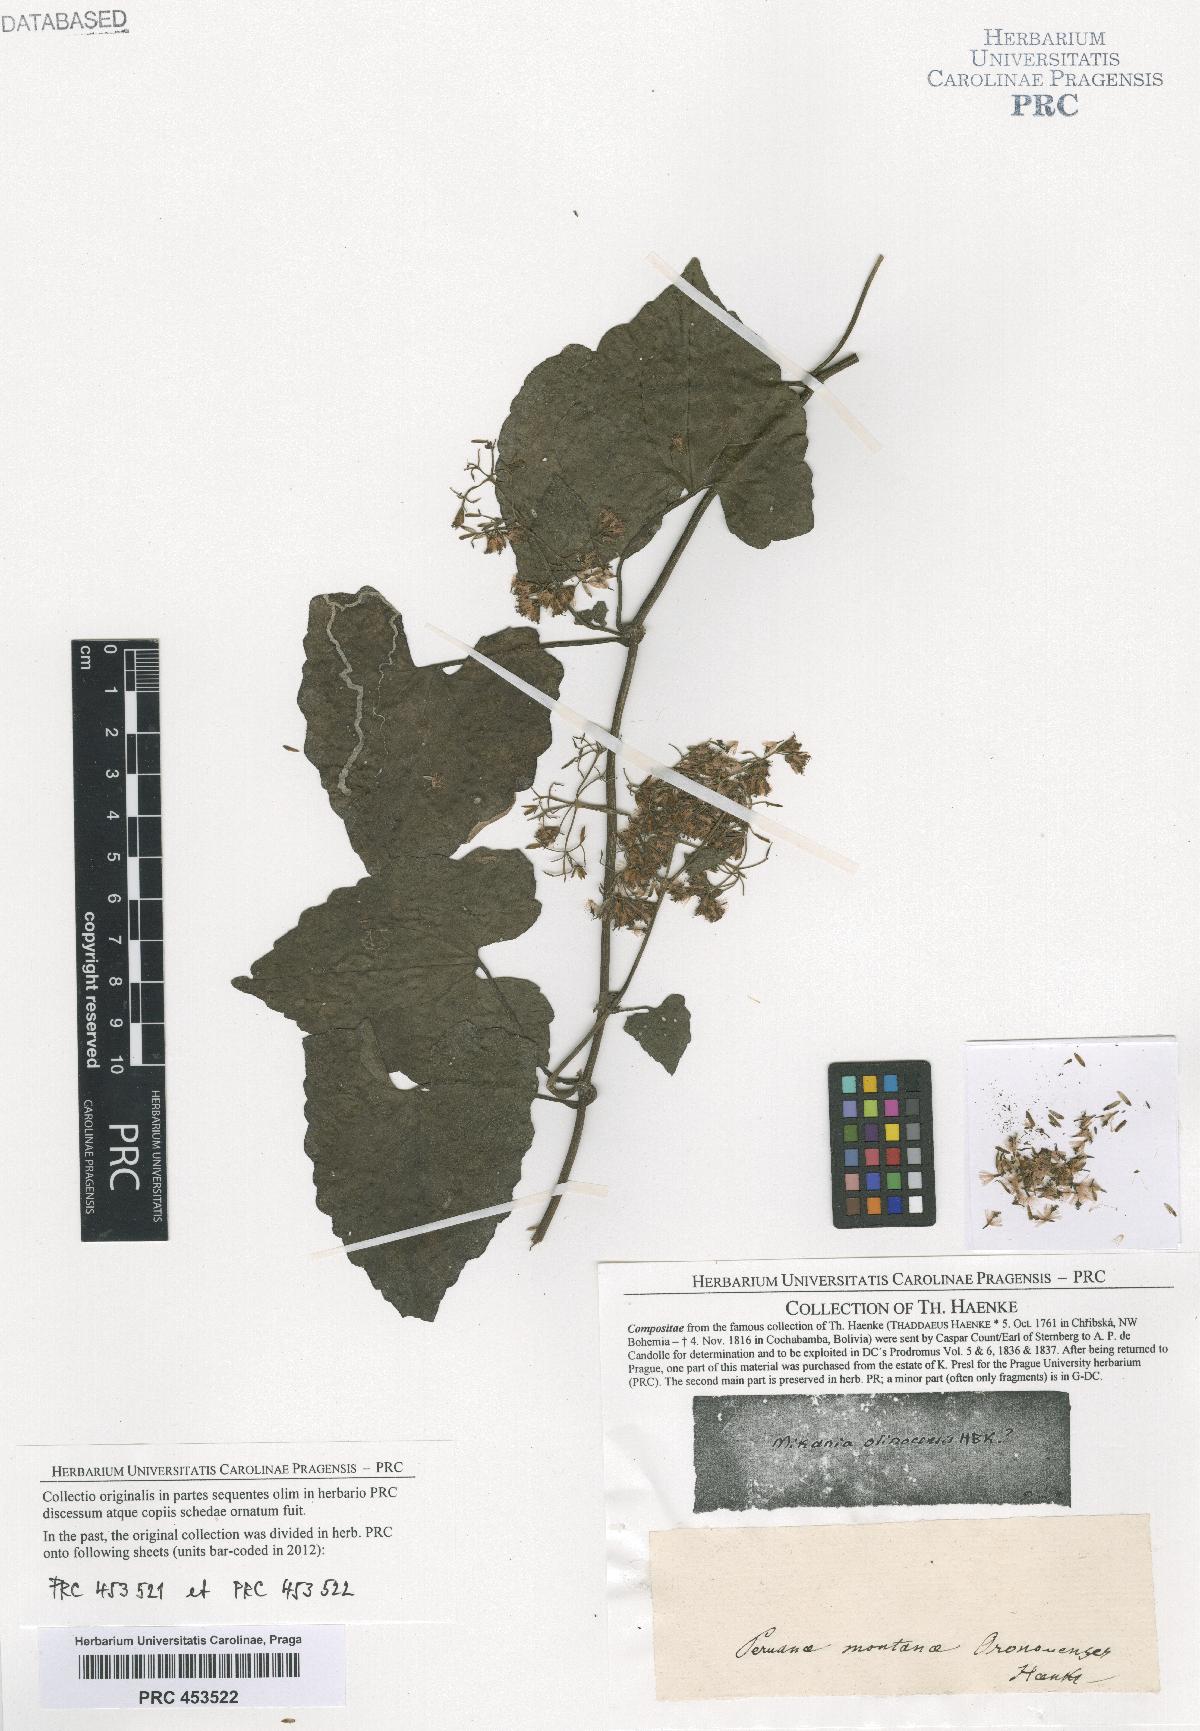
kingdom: Plantae
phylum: Tracheophyta
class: Magnoliopsida
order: Asterales
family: Asteraceae
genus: Mikania
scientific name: Mikania micrantha
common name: Mile-a-minute
